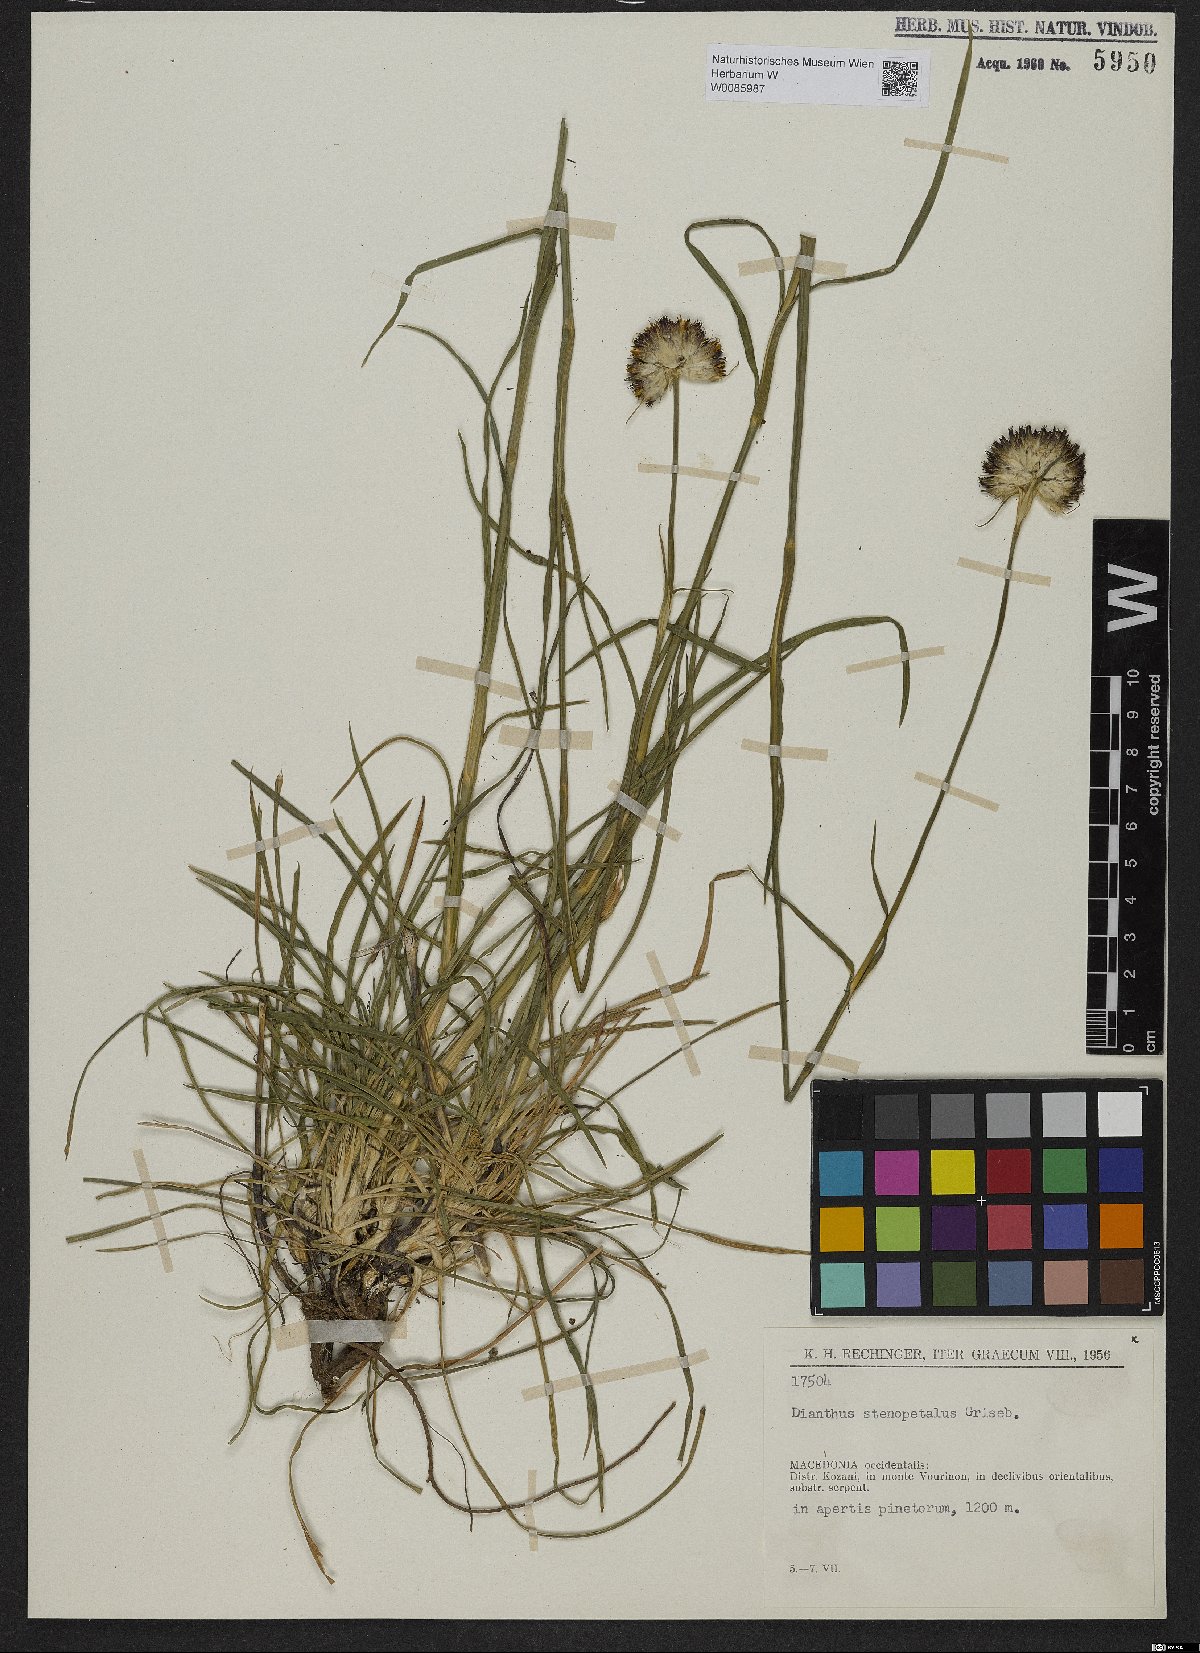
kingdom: Plantae
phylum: Tracheophyta
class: Magnoliopsida
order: Caryophyllales
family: Caryophyllaceae
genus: Dianthus
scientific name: Dianthus stenopetalus
